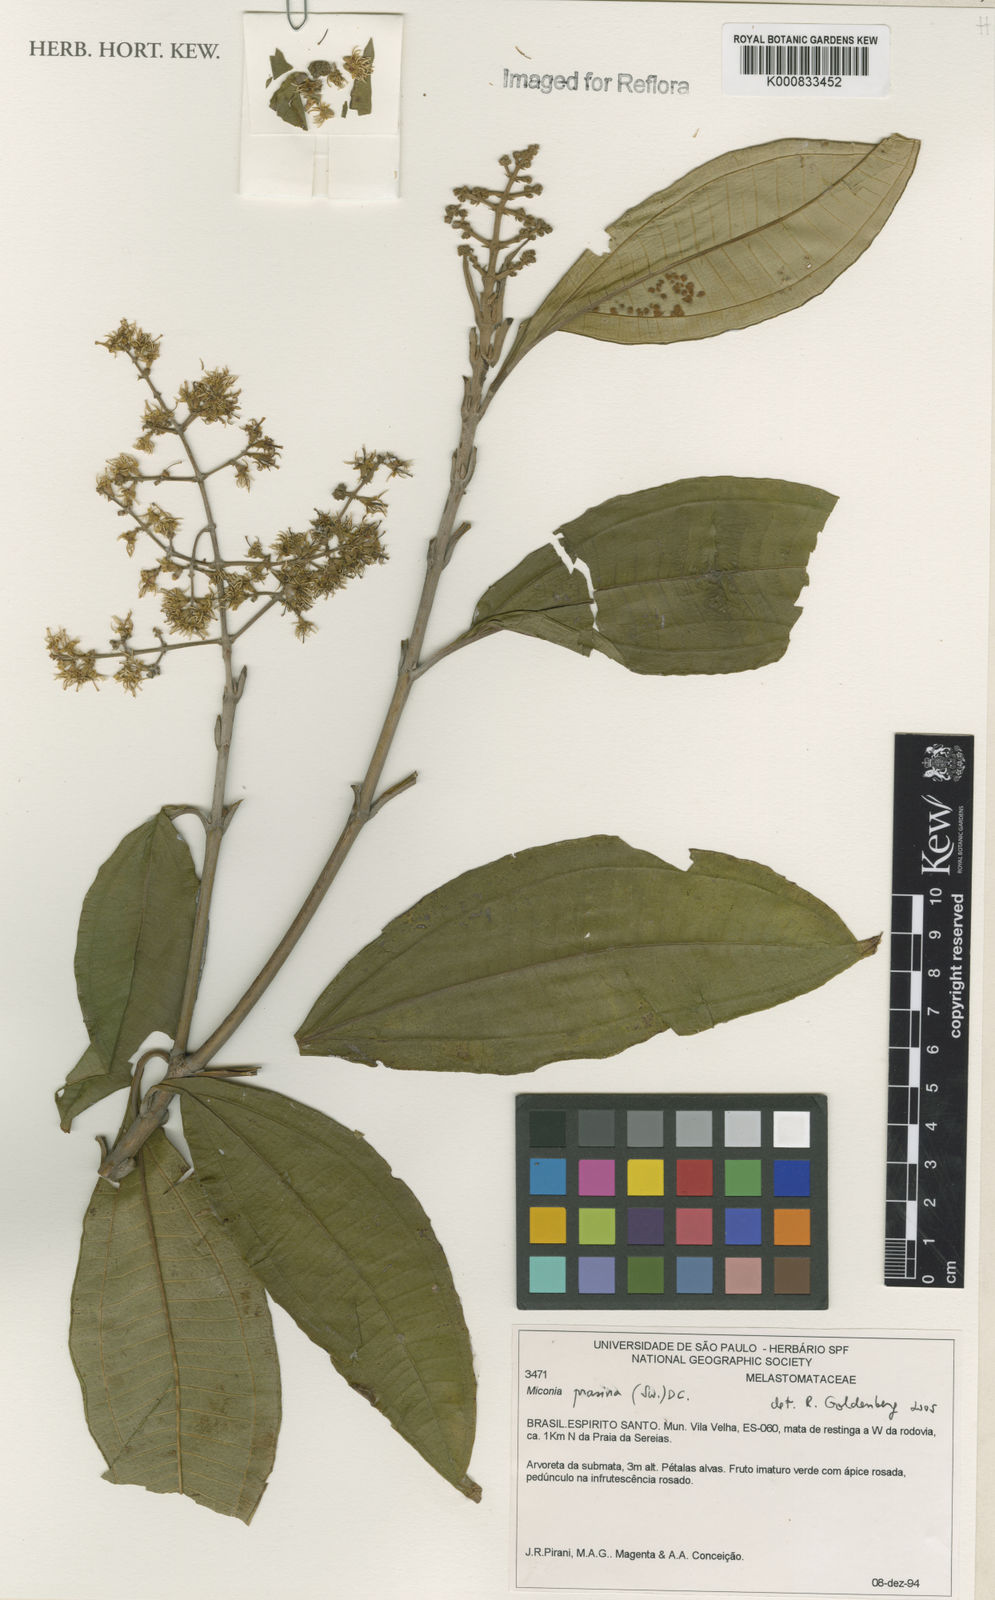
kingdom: Plantae
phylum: Tracheophyta
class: Magnoliopsida
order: Myrtales
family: Melastomataceae
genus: Miconia
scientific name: Miconia prasina
